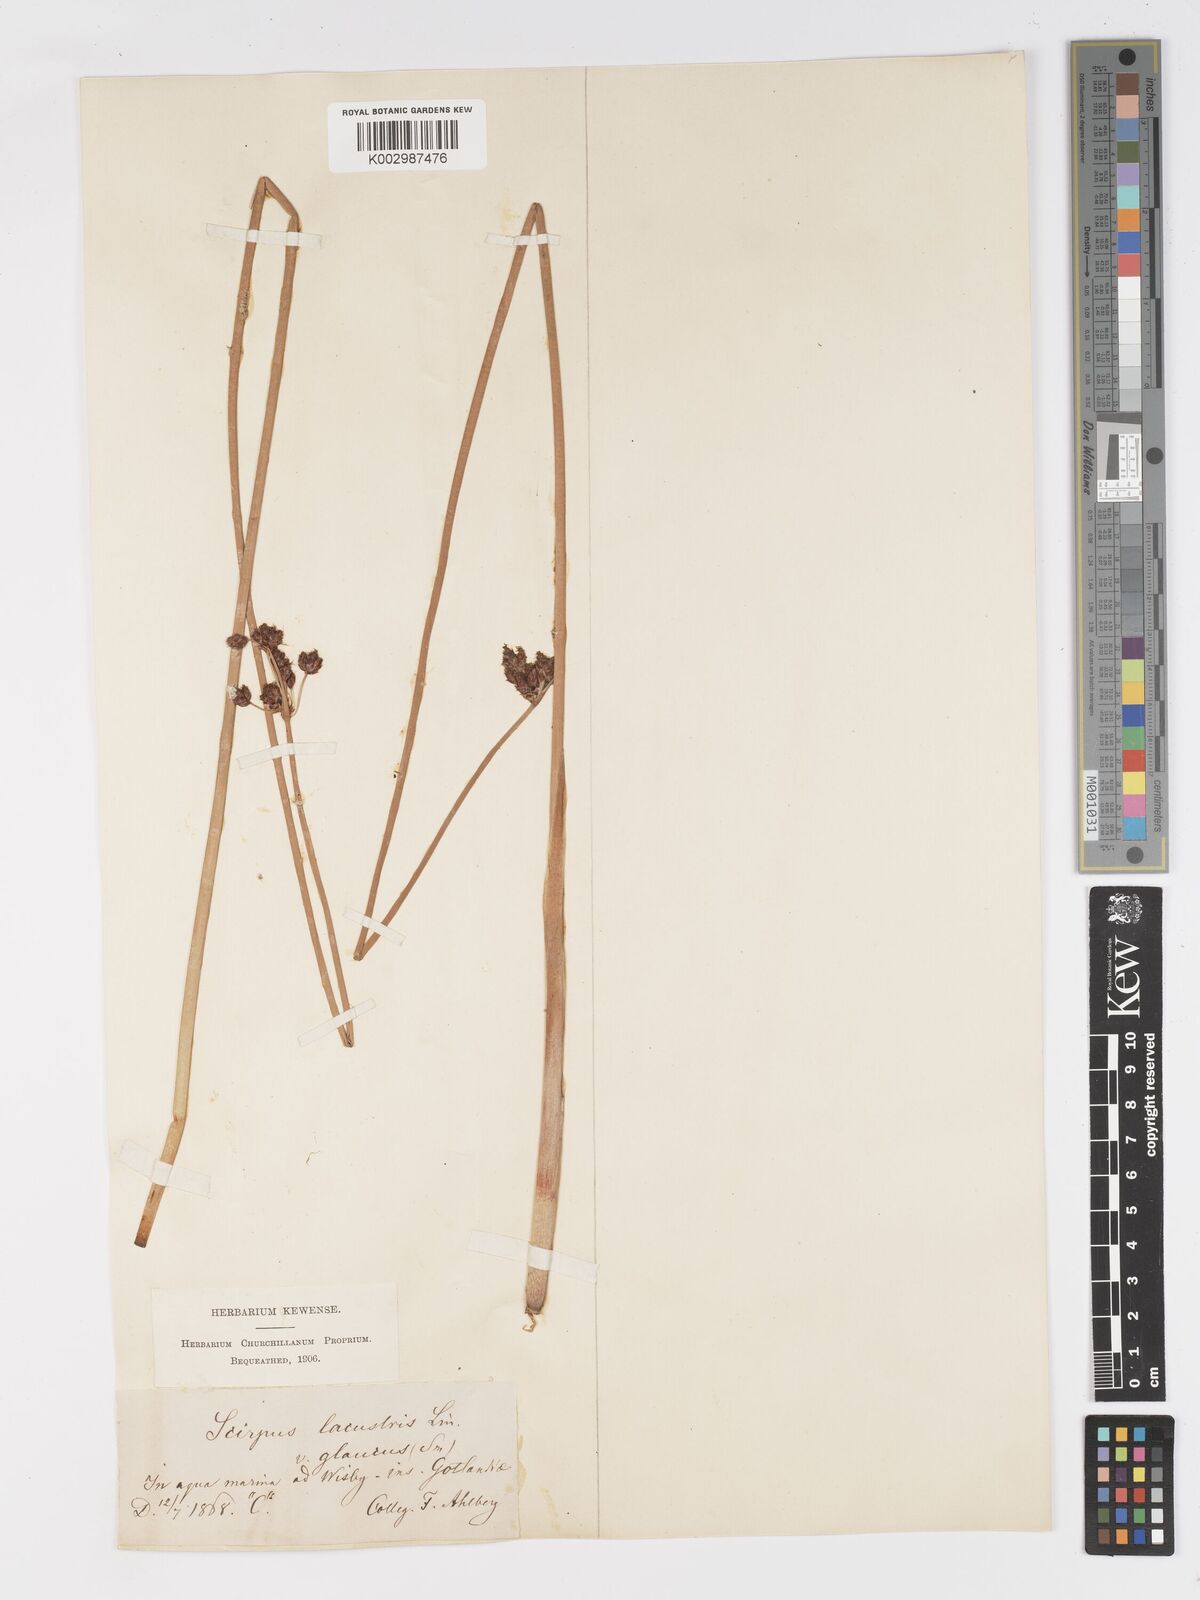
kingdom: Plantae
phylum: Tracheophyta
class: Liliopsida
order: Poales
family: Cyperaceae
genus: Schoenoplectus
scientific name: Schoenoplectus lacustris
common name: Common club-rush
